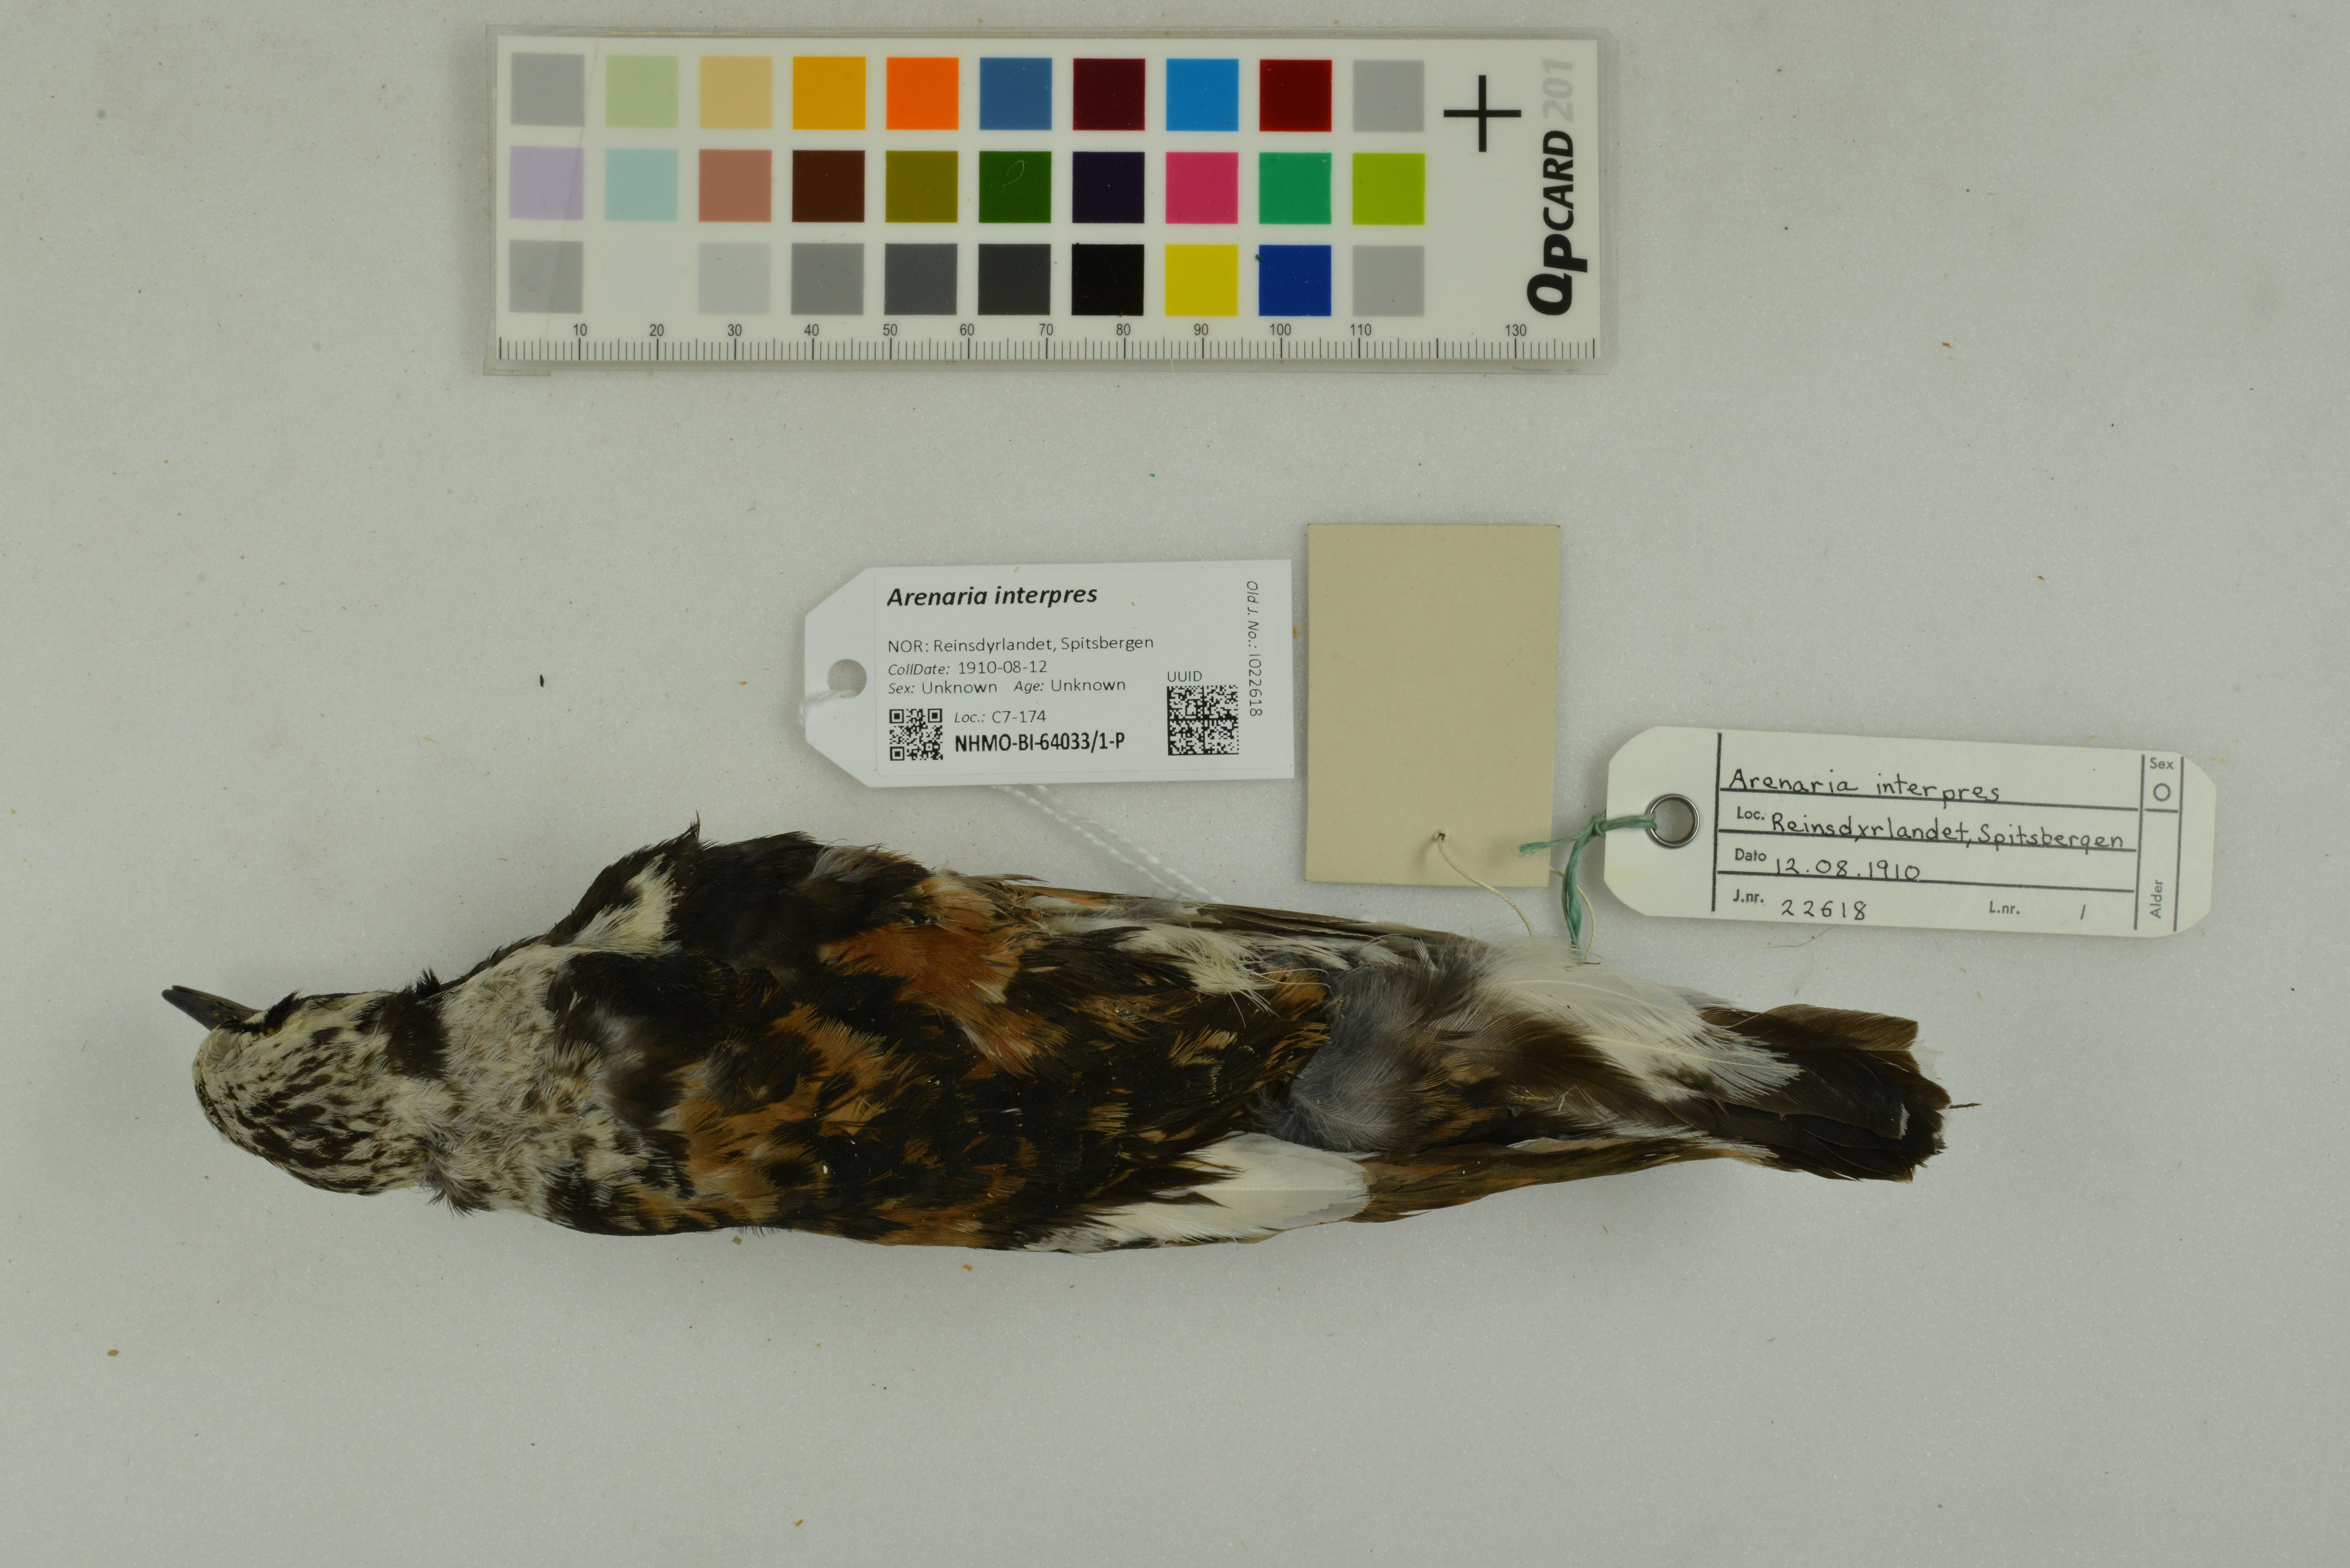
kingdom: Animalia
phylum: Chordata
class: Aves
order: Charadriiformes
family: Scolopacidae
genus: Arenaria
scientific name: Arenaria interpres
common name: Ruddy turnstone
